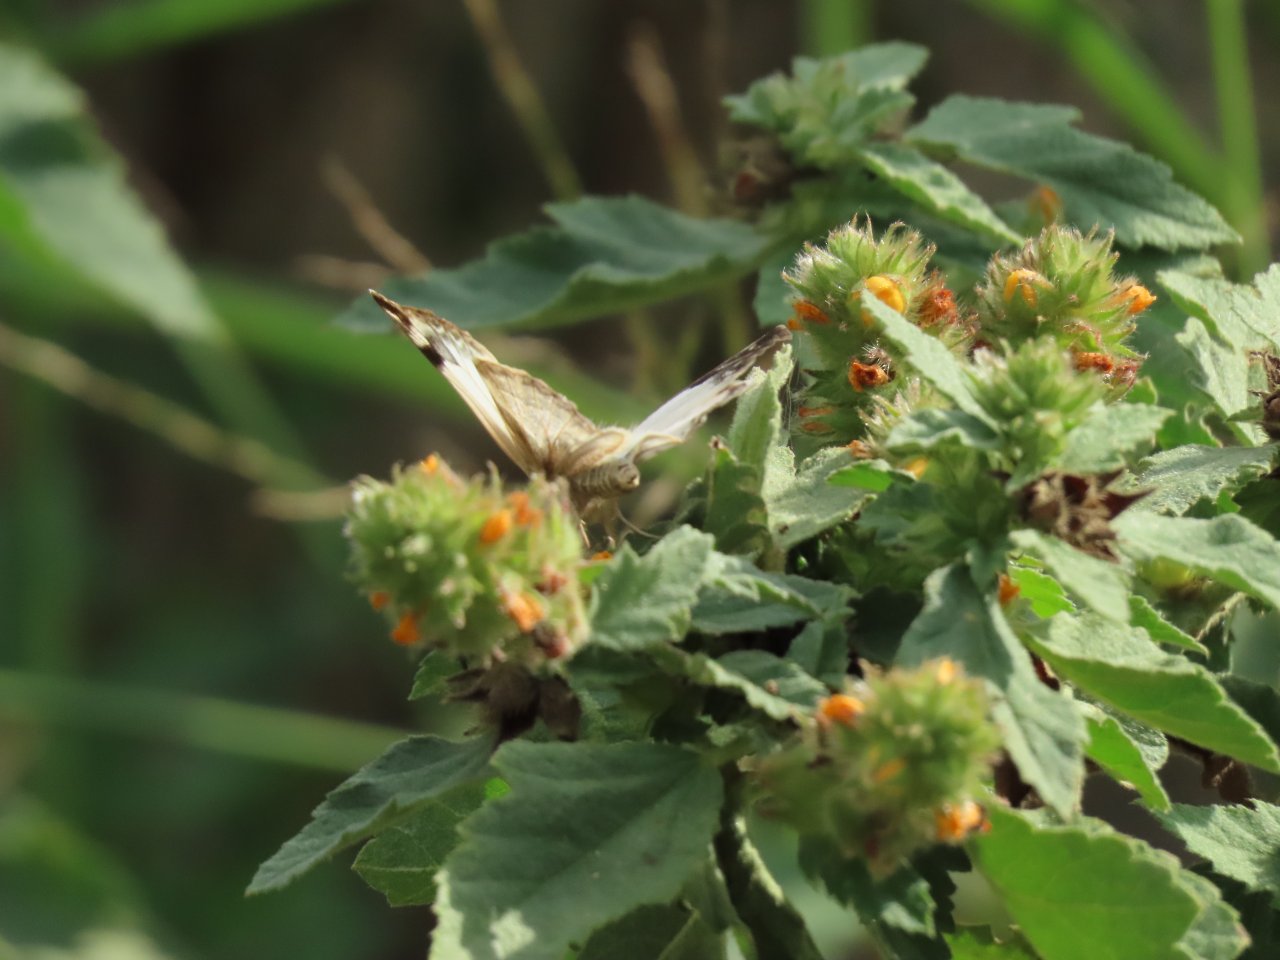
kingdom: Animalia
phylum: Arthropoda
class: Insecta
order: Lepidoptera
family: Hesperiidae
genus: Heliopetes
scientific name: Heliopetes laviana
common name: Laviana White-Skipper
